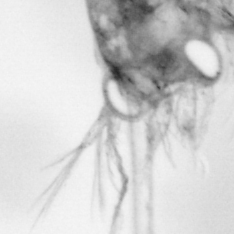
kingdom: Animalia
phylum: Arthropoda
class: Copepoda
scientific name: Copepoda
